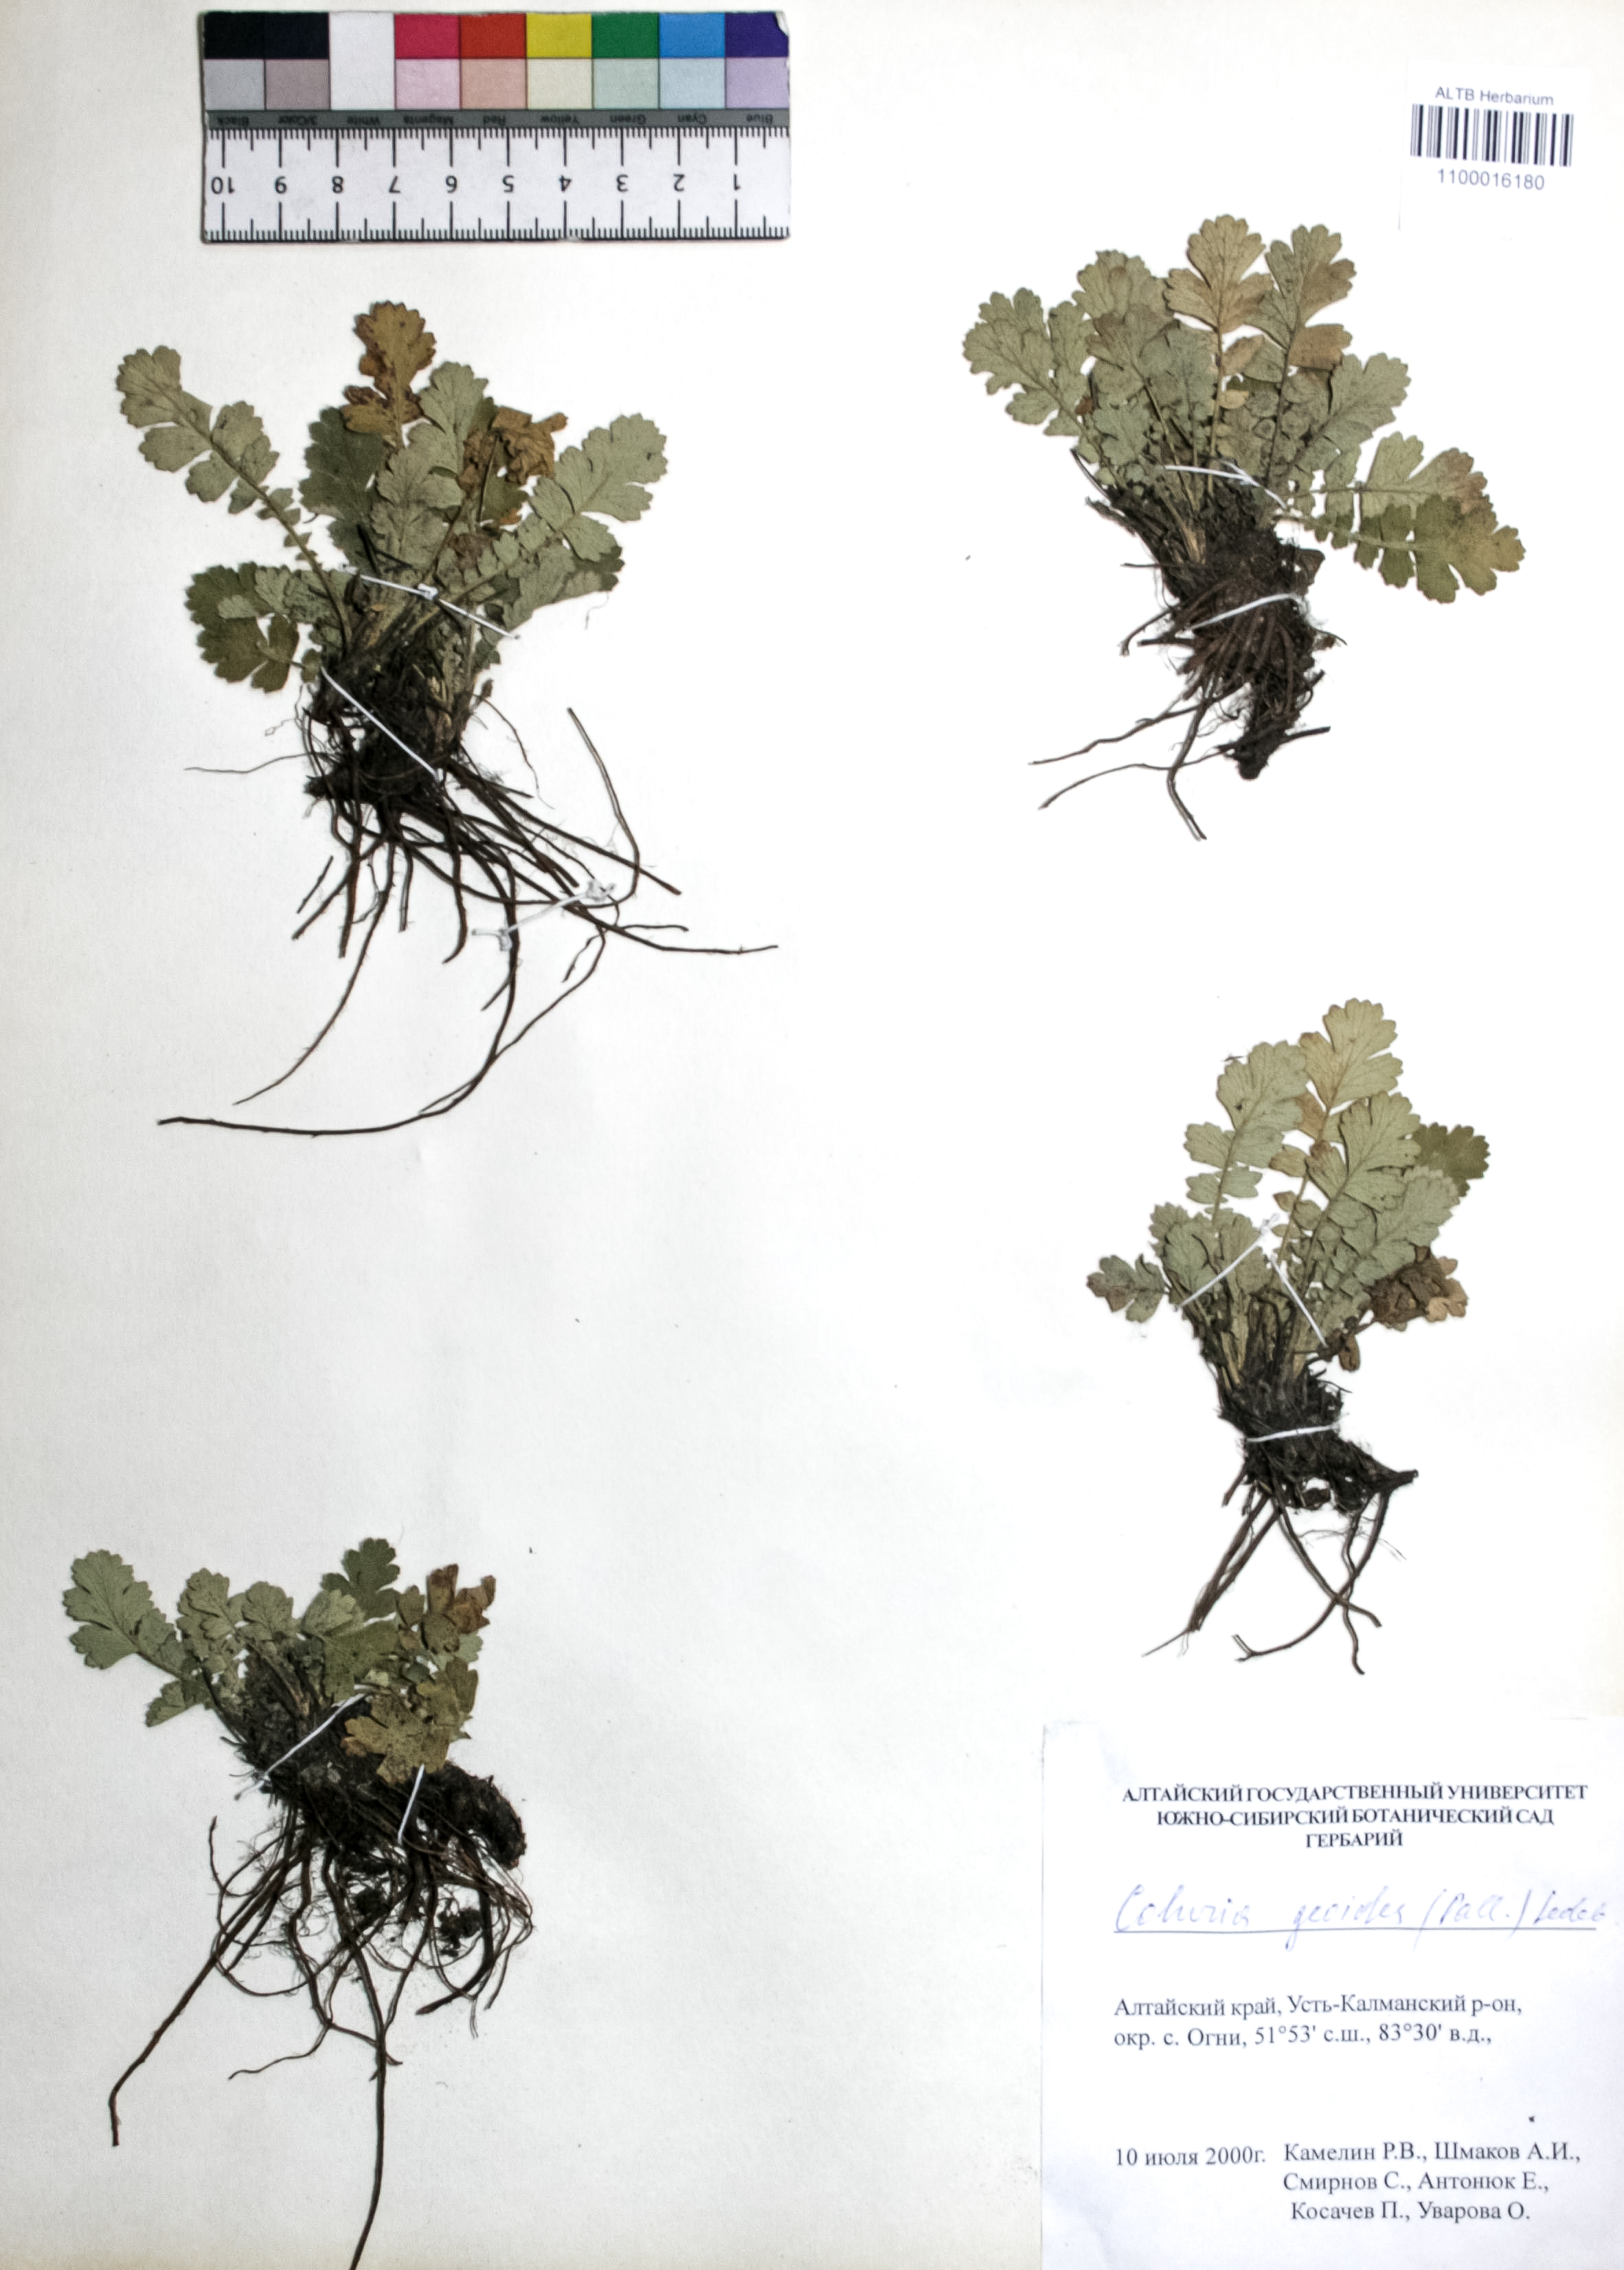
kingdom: Plantae
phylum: Tracheophyta
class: Magnoliopsida
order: Rosales
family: Rosaceae
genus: Geum
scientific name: Geum geoides
